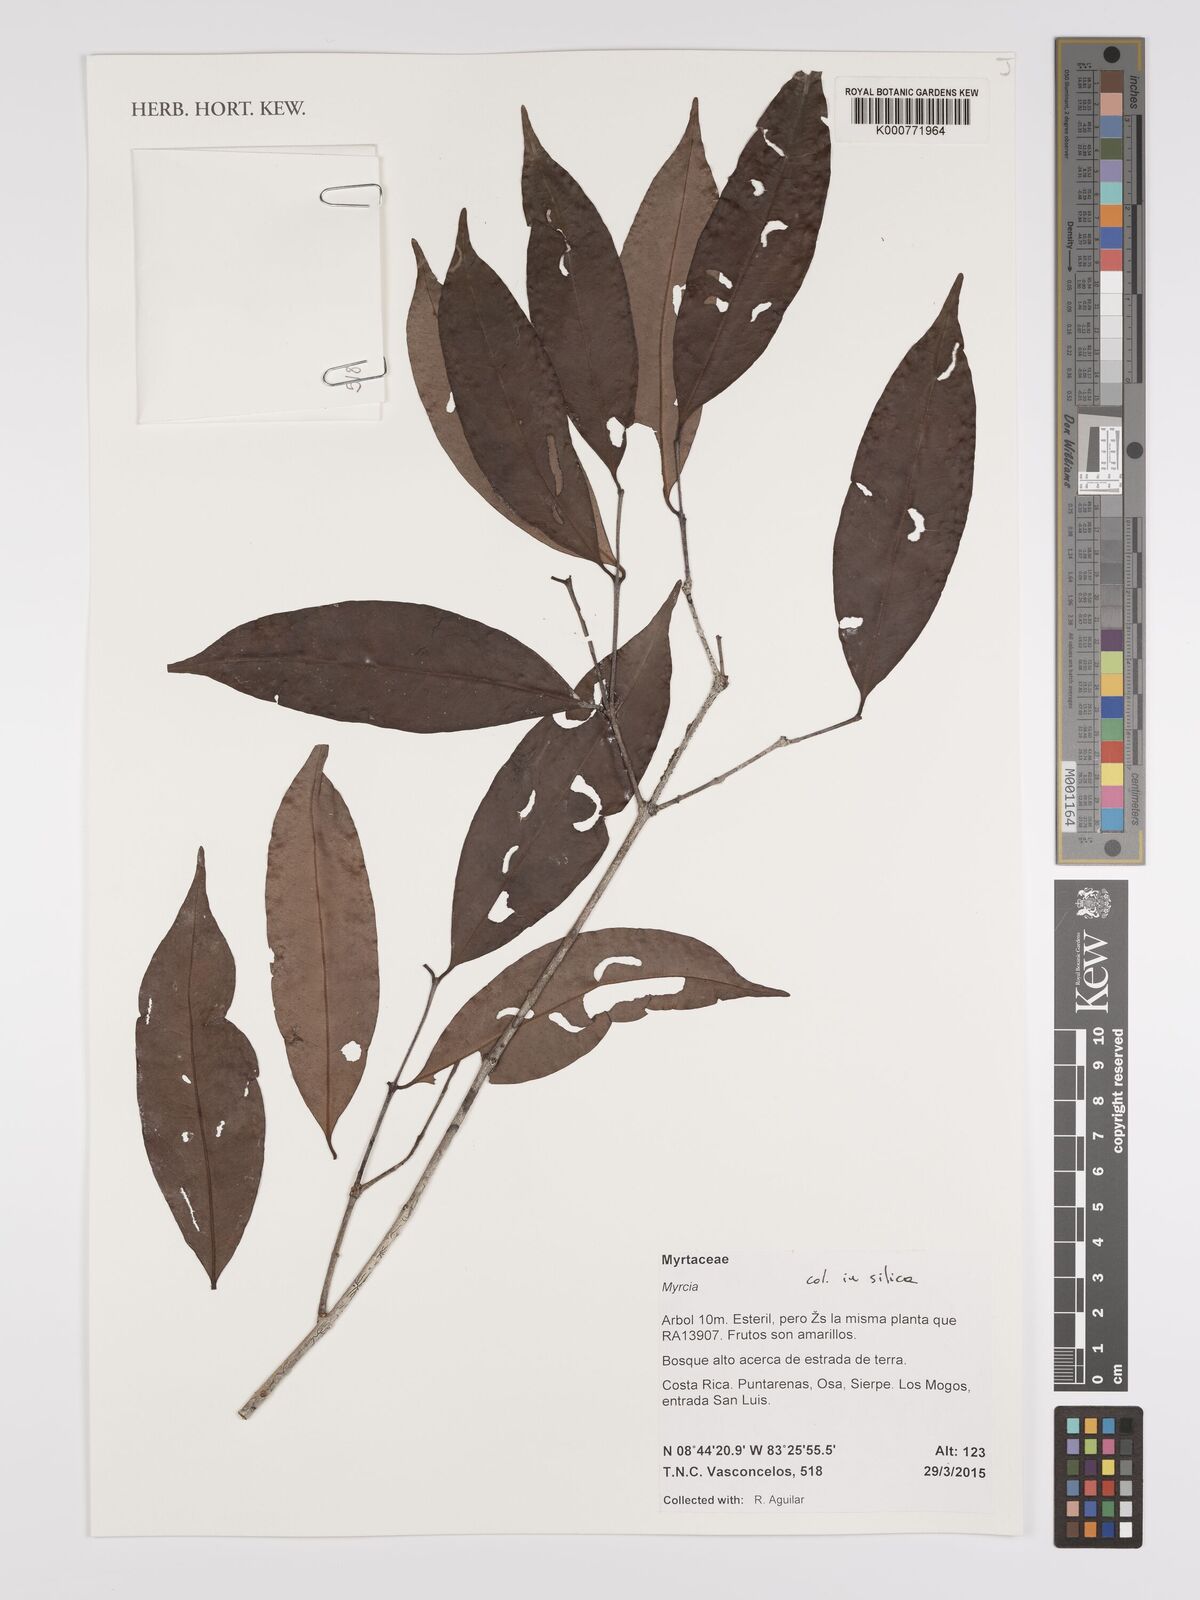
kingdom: Plantae
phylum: Tracheophyta
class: Magnoliopsida
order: Myrtales
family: Myrtaceae
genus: Myrcia
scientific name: Myrcia
